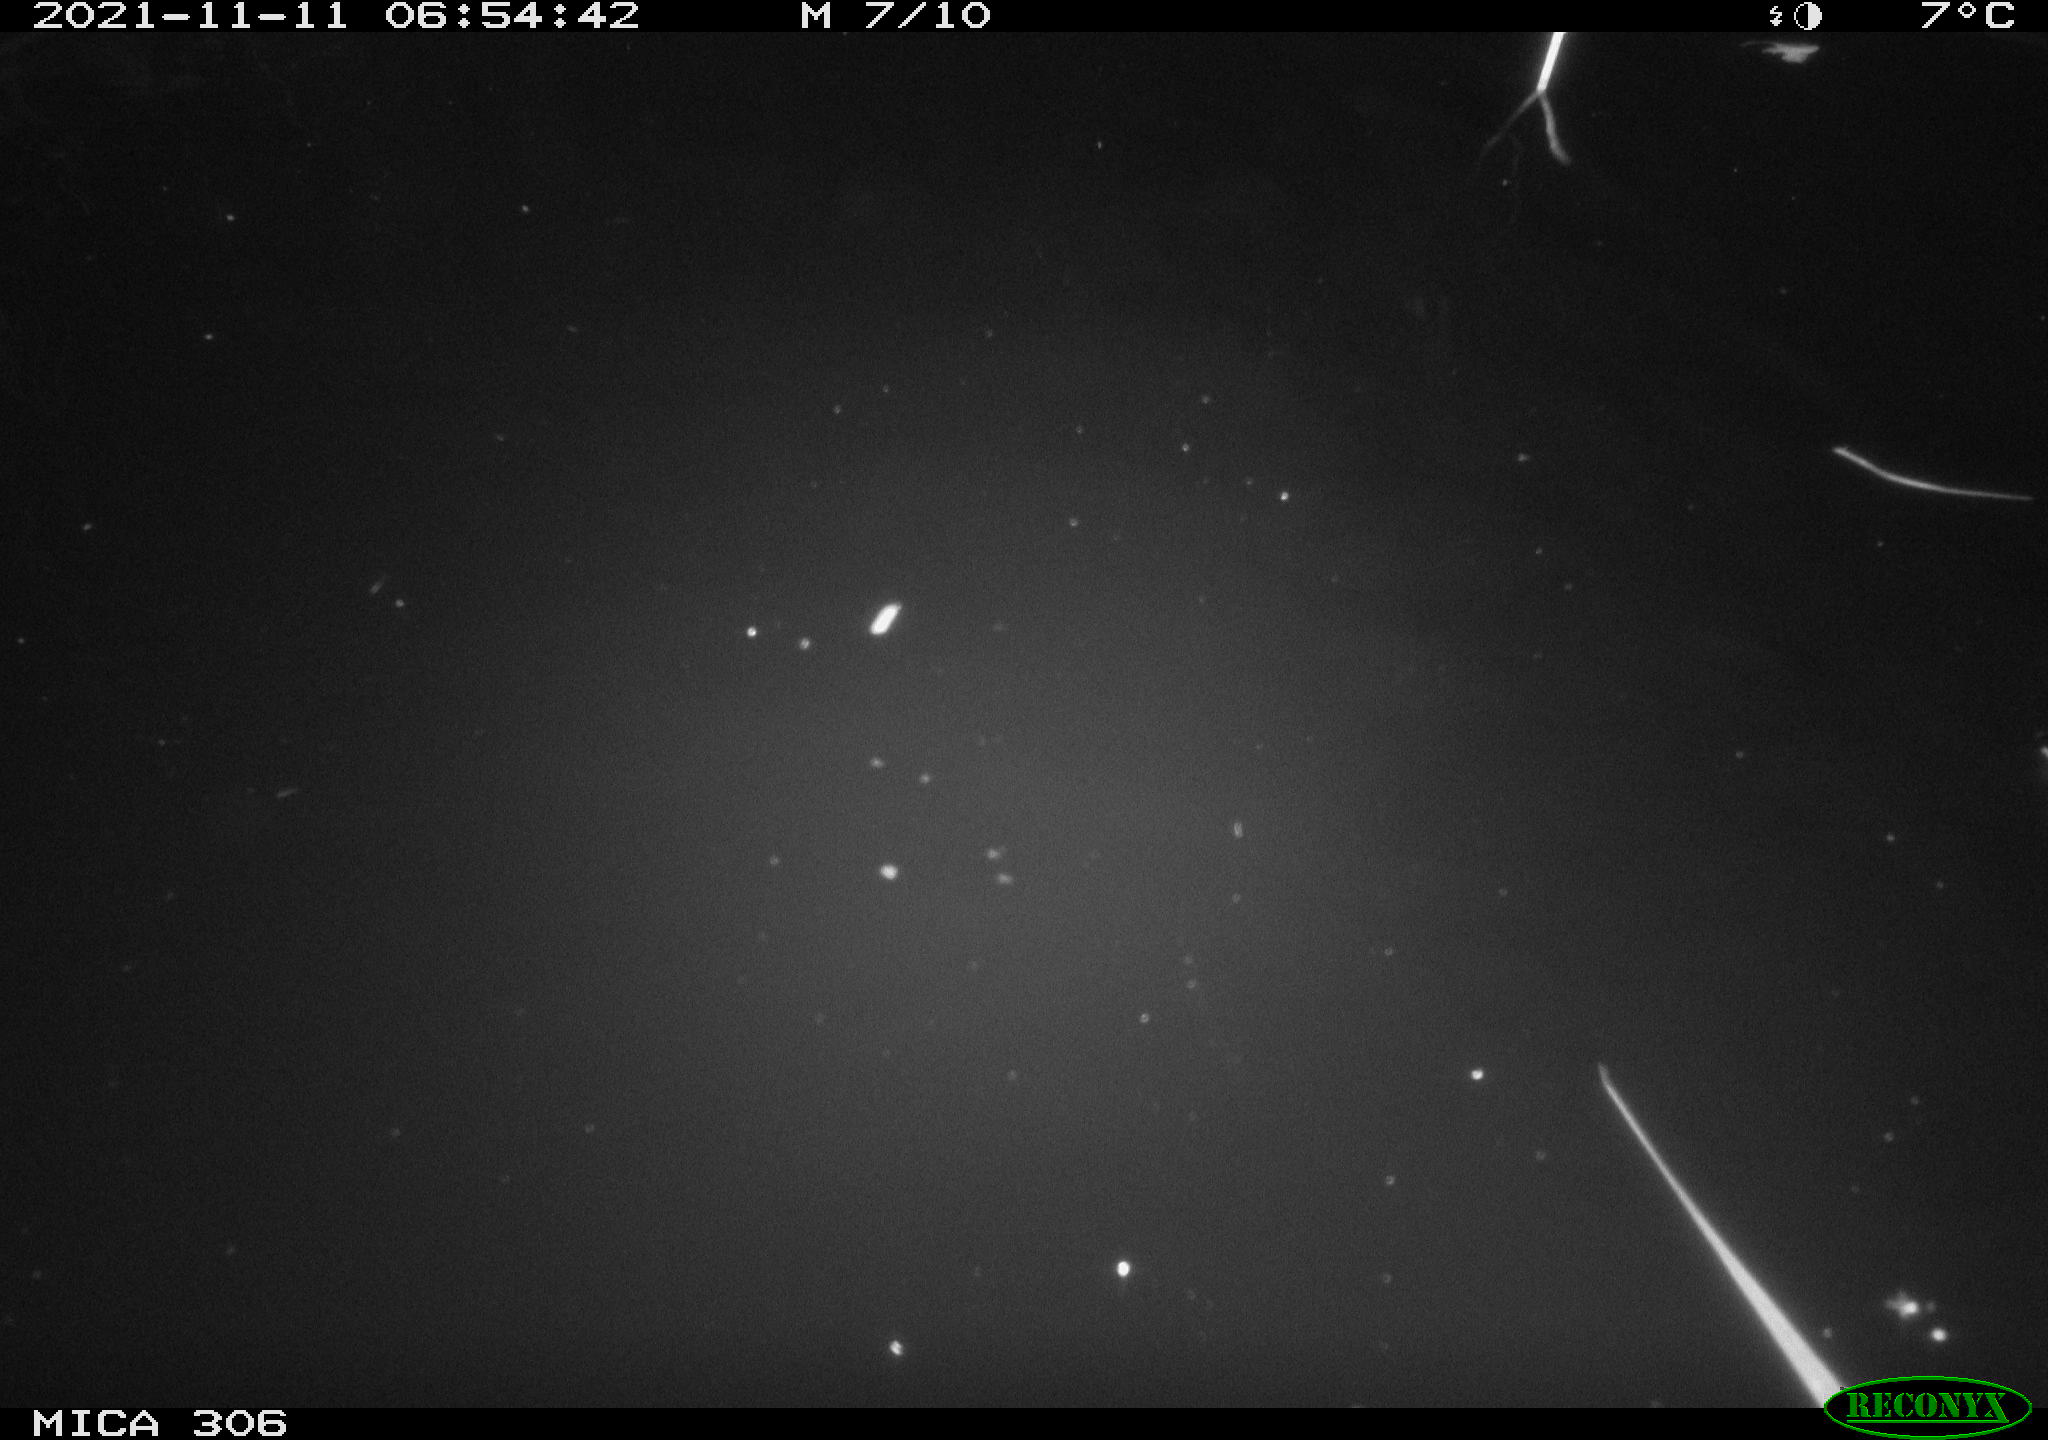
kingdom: Animalia
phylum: Chordata
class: Mammalia
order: Rodentia
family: Cricetidae
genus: Ondatra
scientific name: Ondatra zibethicus
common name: Muskrat
